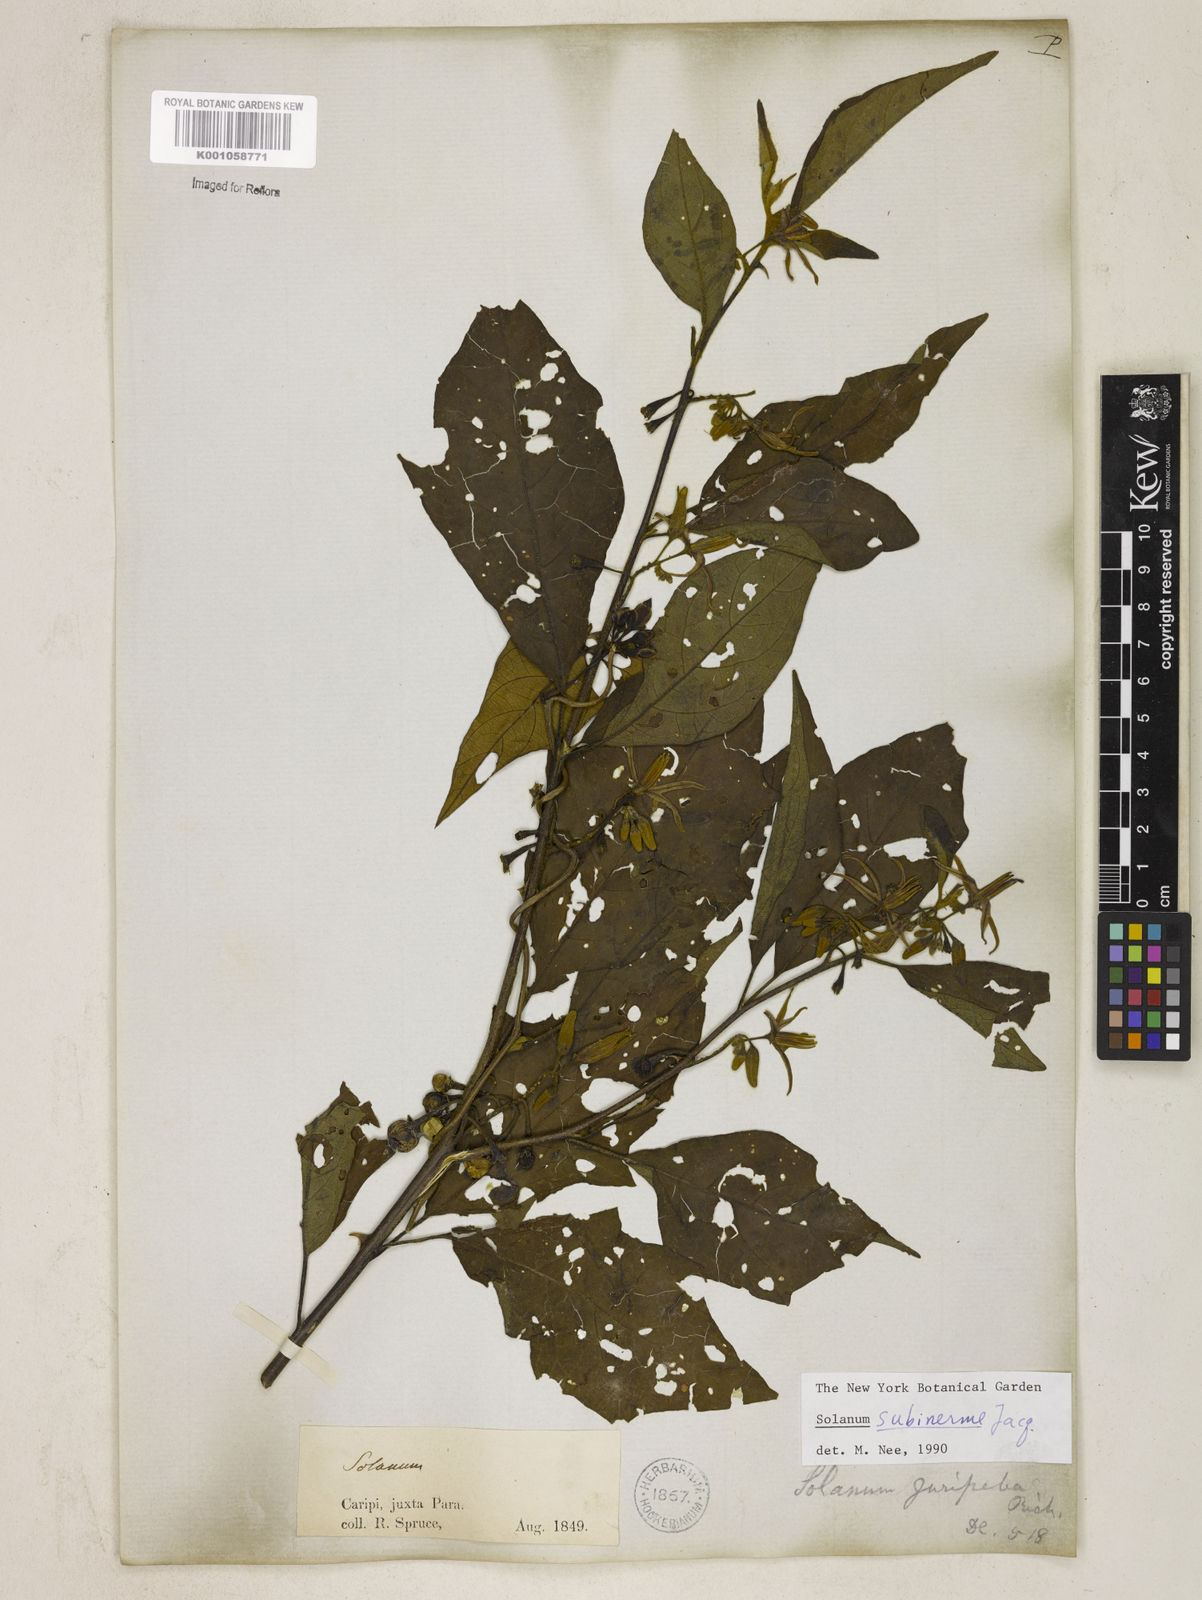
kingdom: Plantae
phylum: Tracheophyta
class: Magnoliopsida
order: Solanales
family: Solanaceae
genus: Solanum
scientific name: Solanum subinerme
